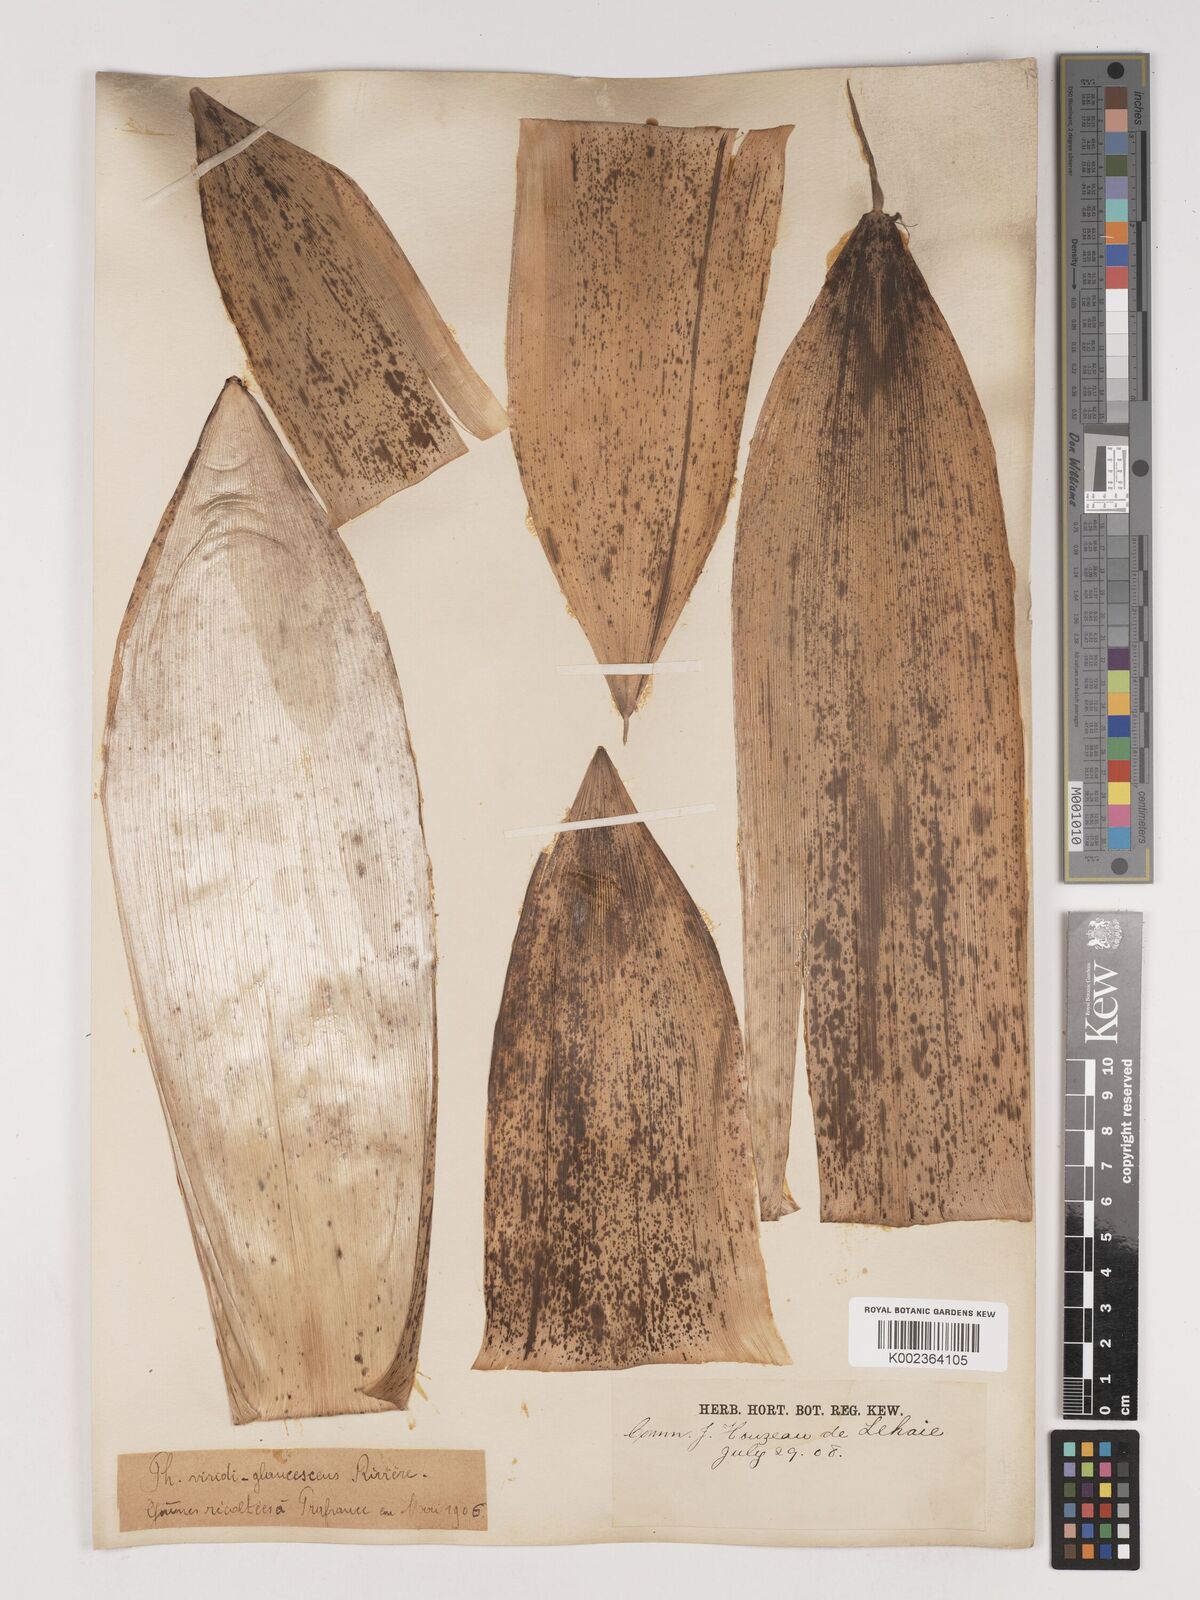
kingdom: Plantae
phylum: Tracheophyta
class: Liliopsida
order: Poales
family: Poaceae
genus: Phyllostachys
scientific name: Phyllostachys viridiglaucescens
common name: Greenwax golden bamboo
